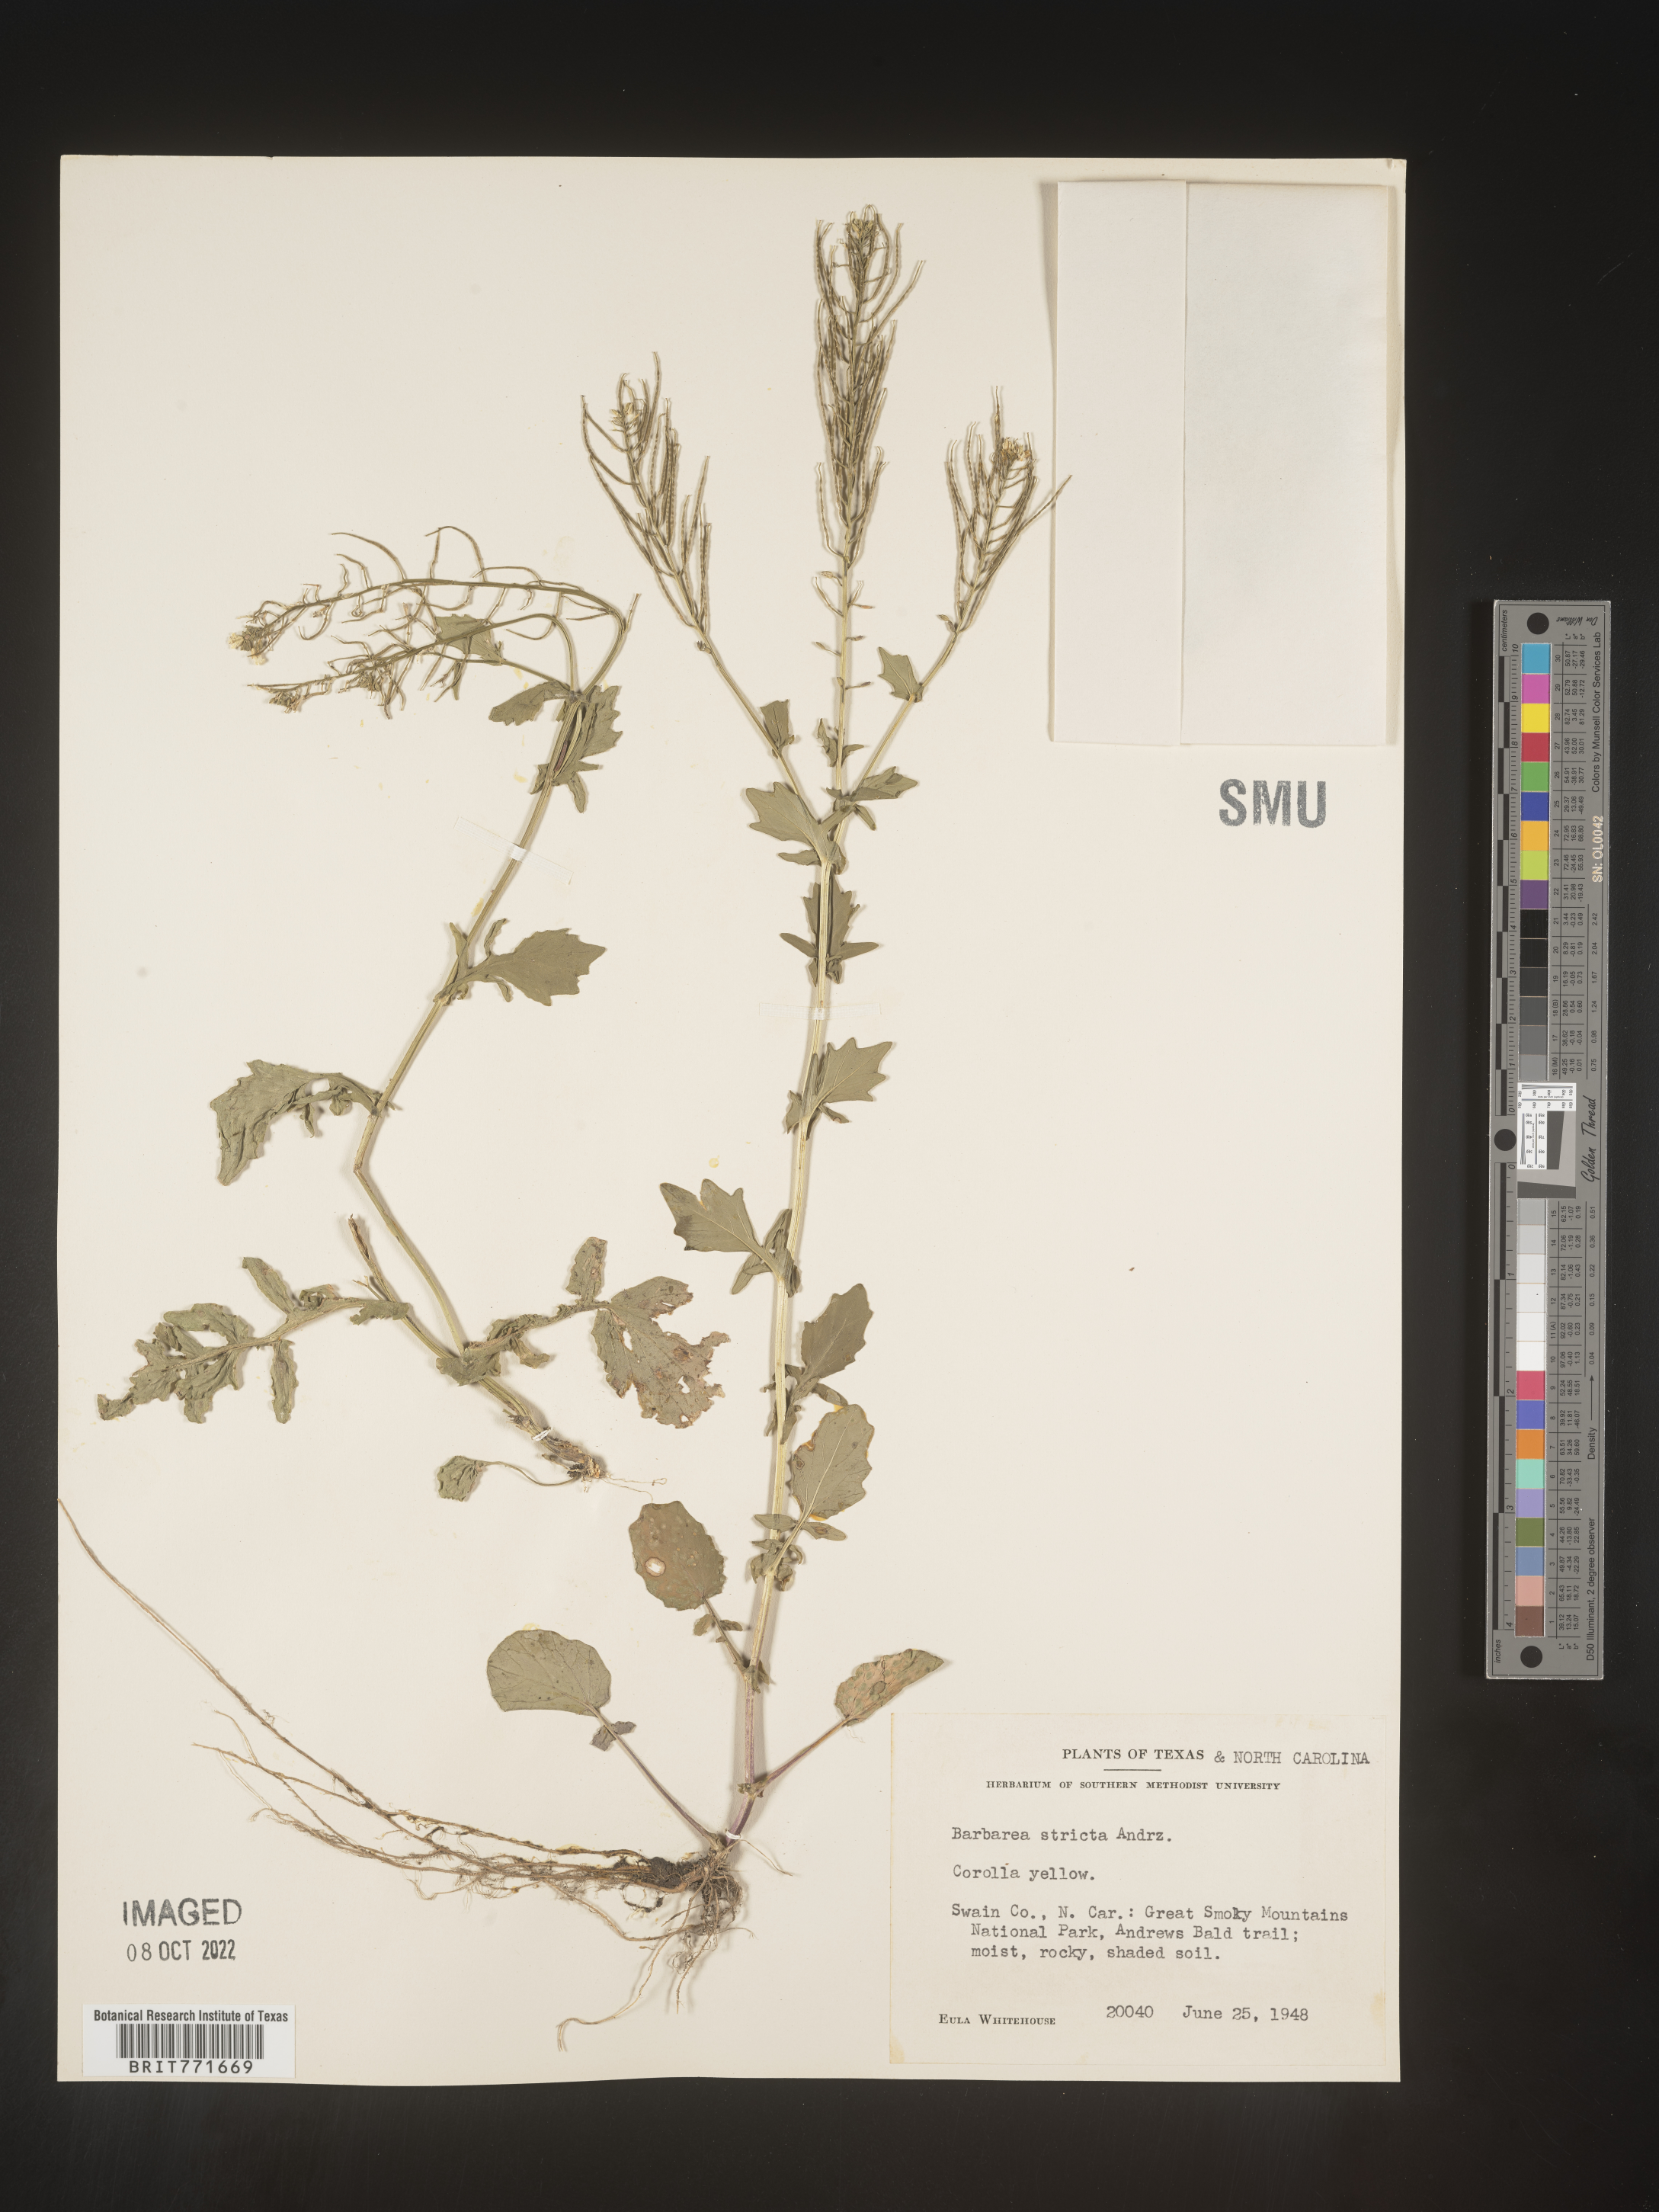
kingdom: Plantae
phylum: Tracheophyta
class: Magnoliopsida
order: Brassicales
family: Brassicaceae
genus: Barbarea
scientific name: Barbarea
